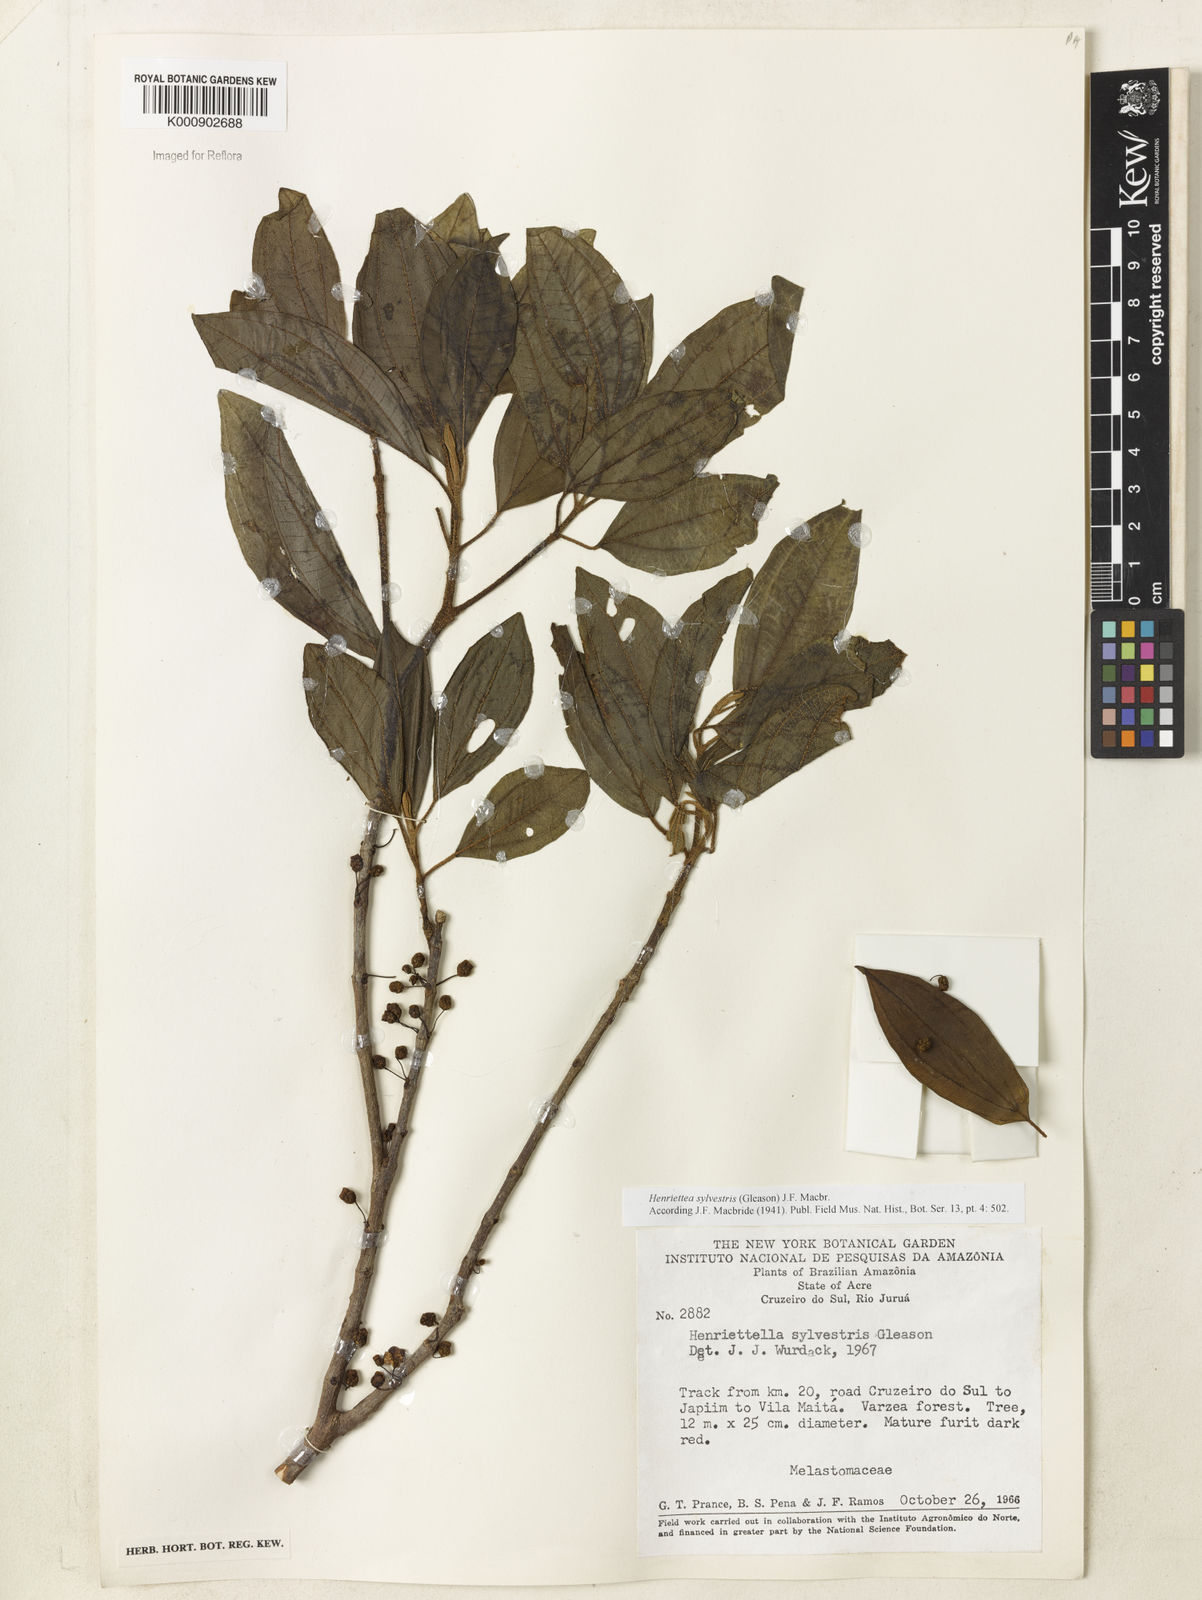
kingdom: Plantae
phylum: Tracheophyta
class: Magnoliopsida
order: Myrtales
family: Melastomataceae
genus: Henriettea
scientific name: Henriettea sylvestris
